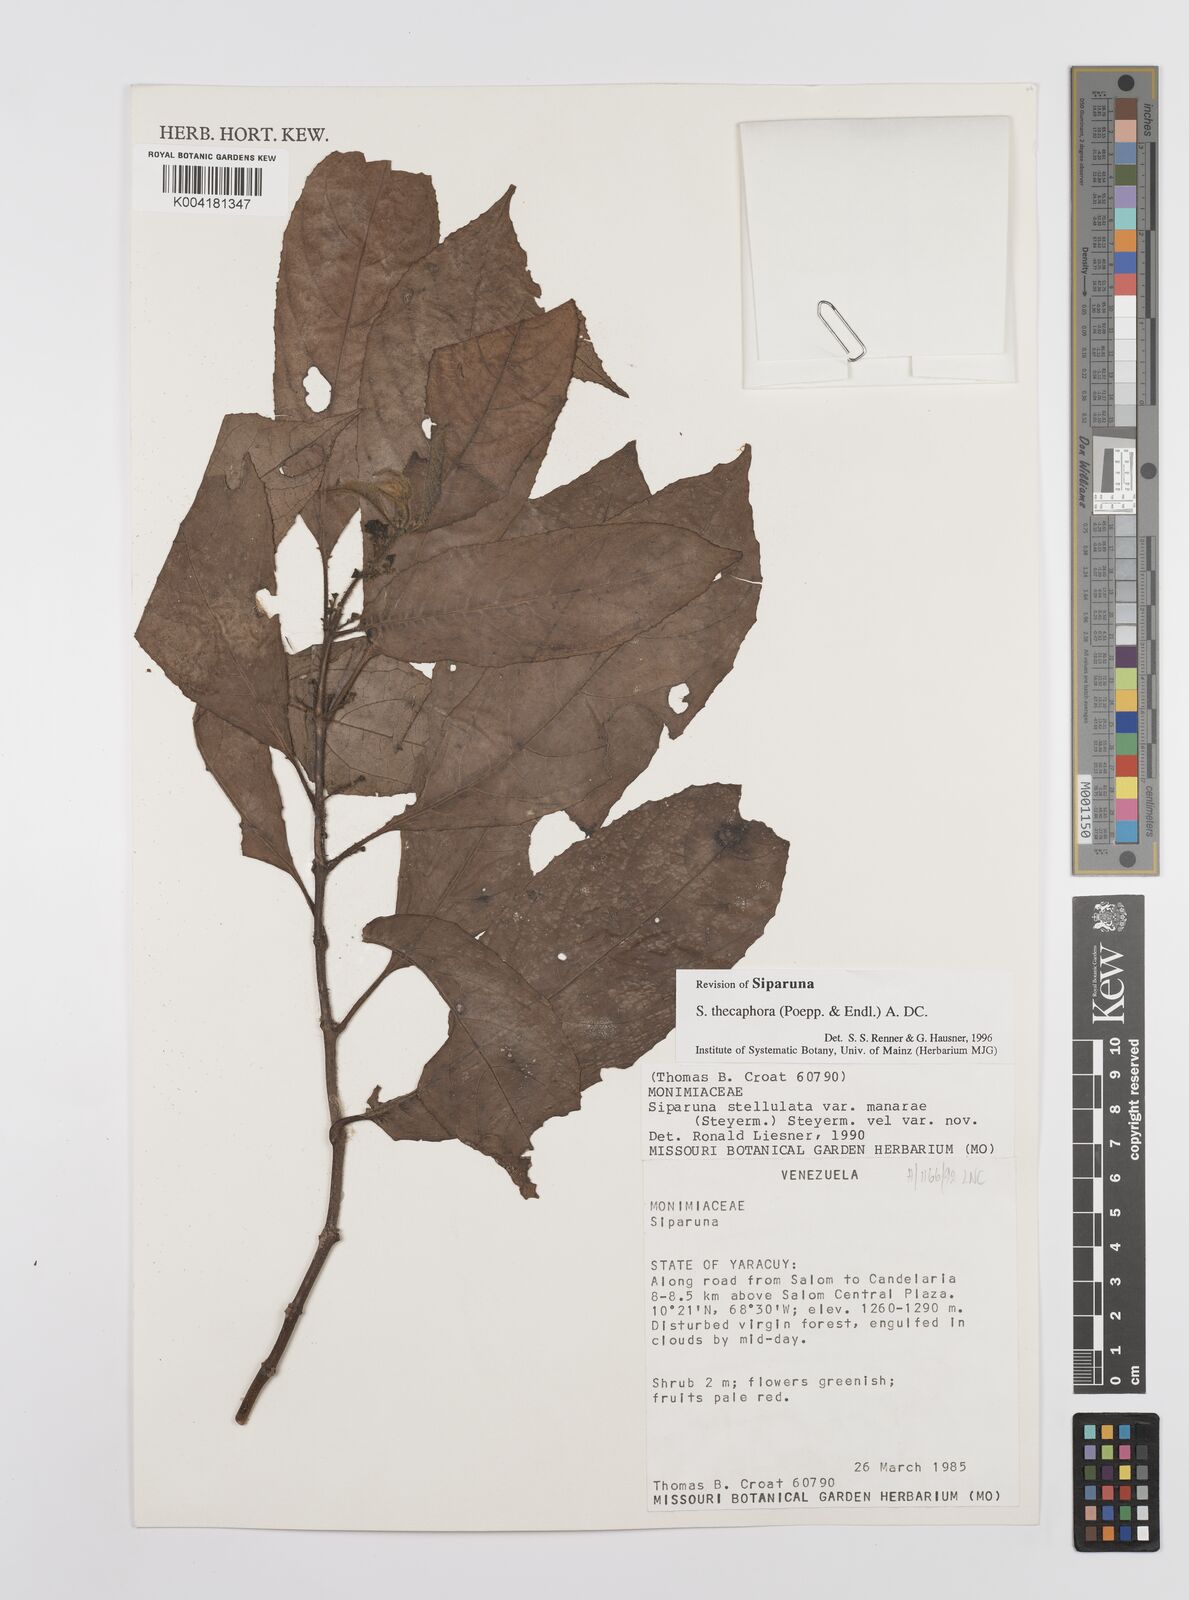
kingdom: Plantae
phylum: Tracheophyta
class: Magnoliopsida
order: Laurales
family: Siparunaceae
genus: Siparuna
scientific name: Siparuna thecaphora
